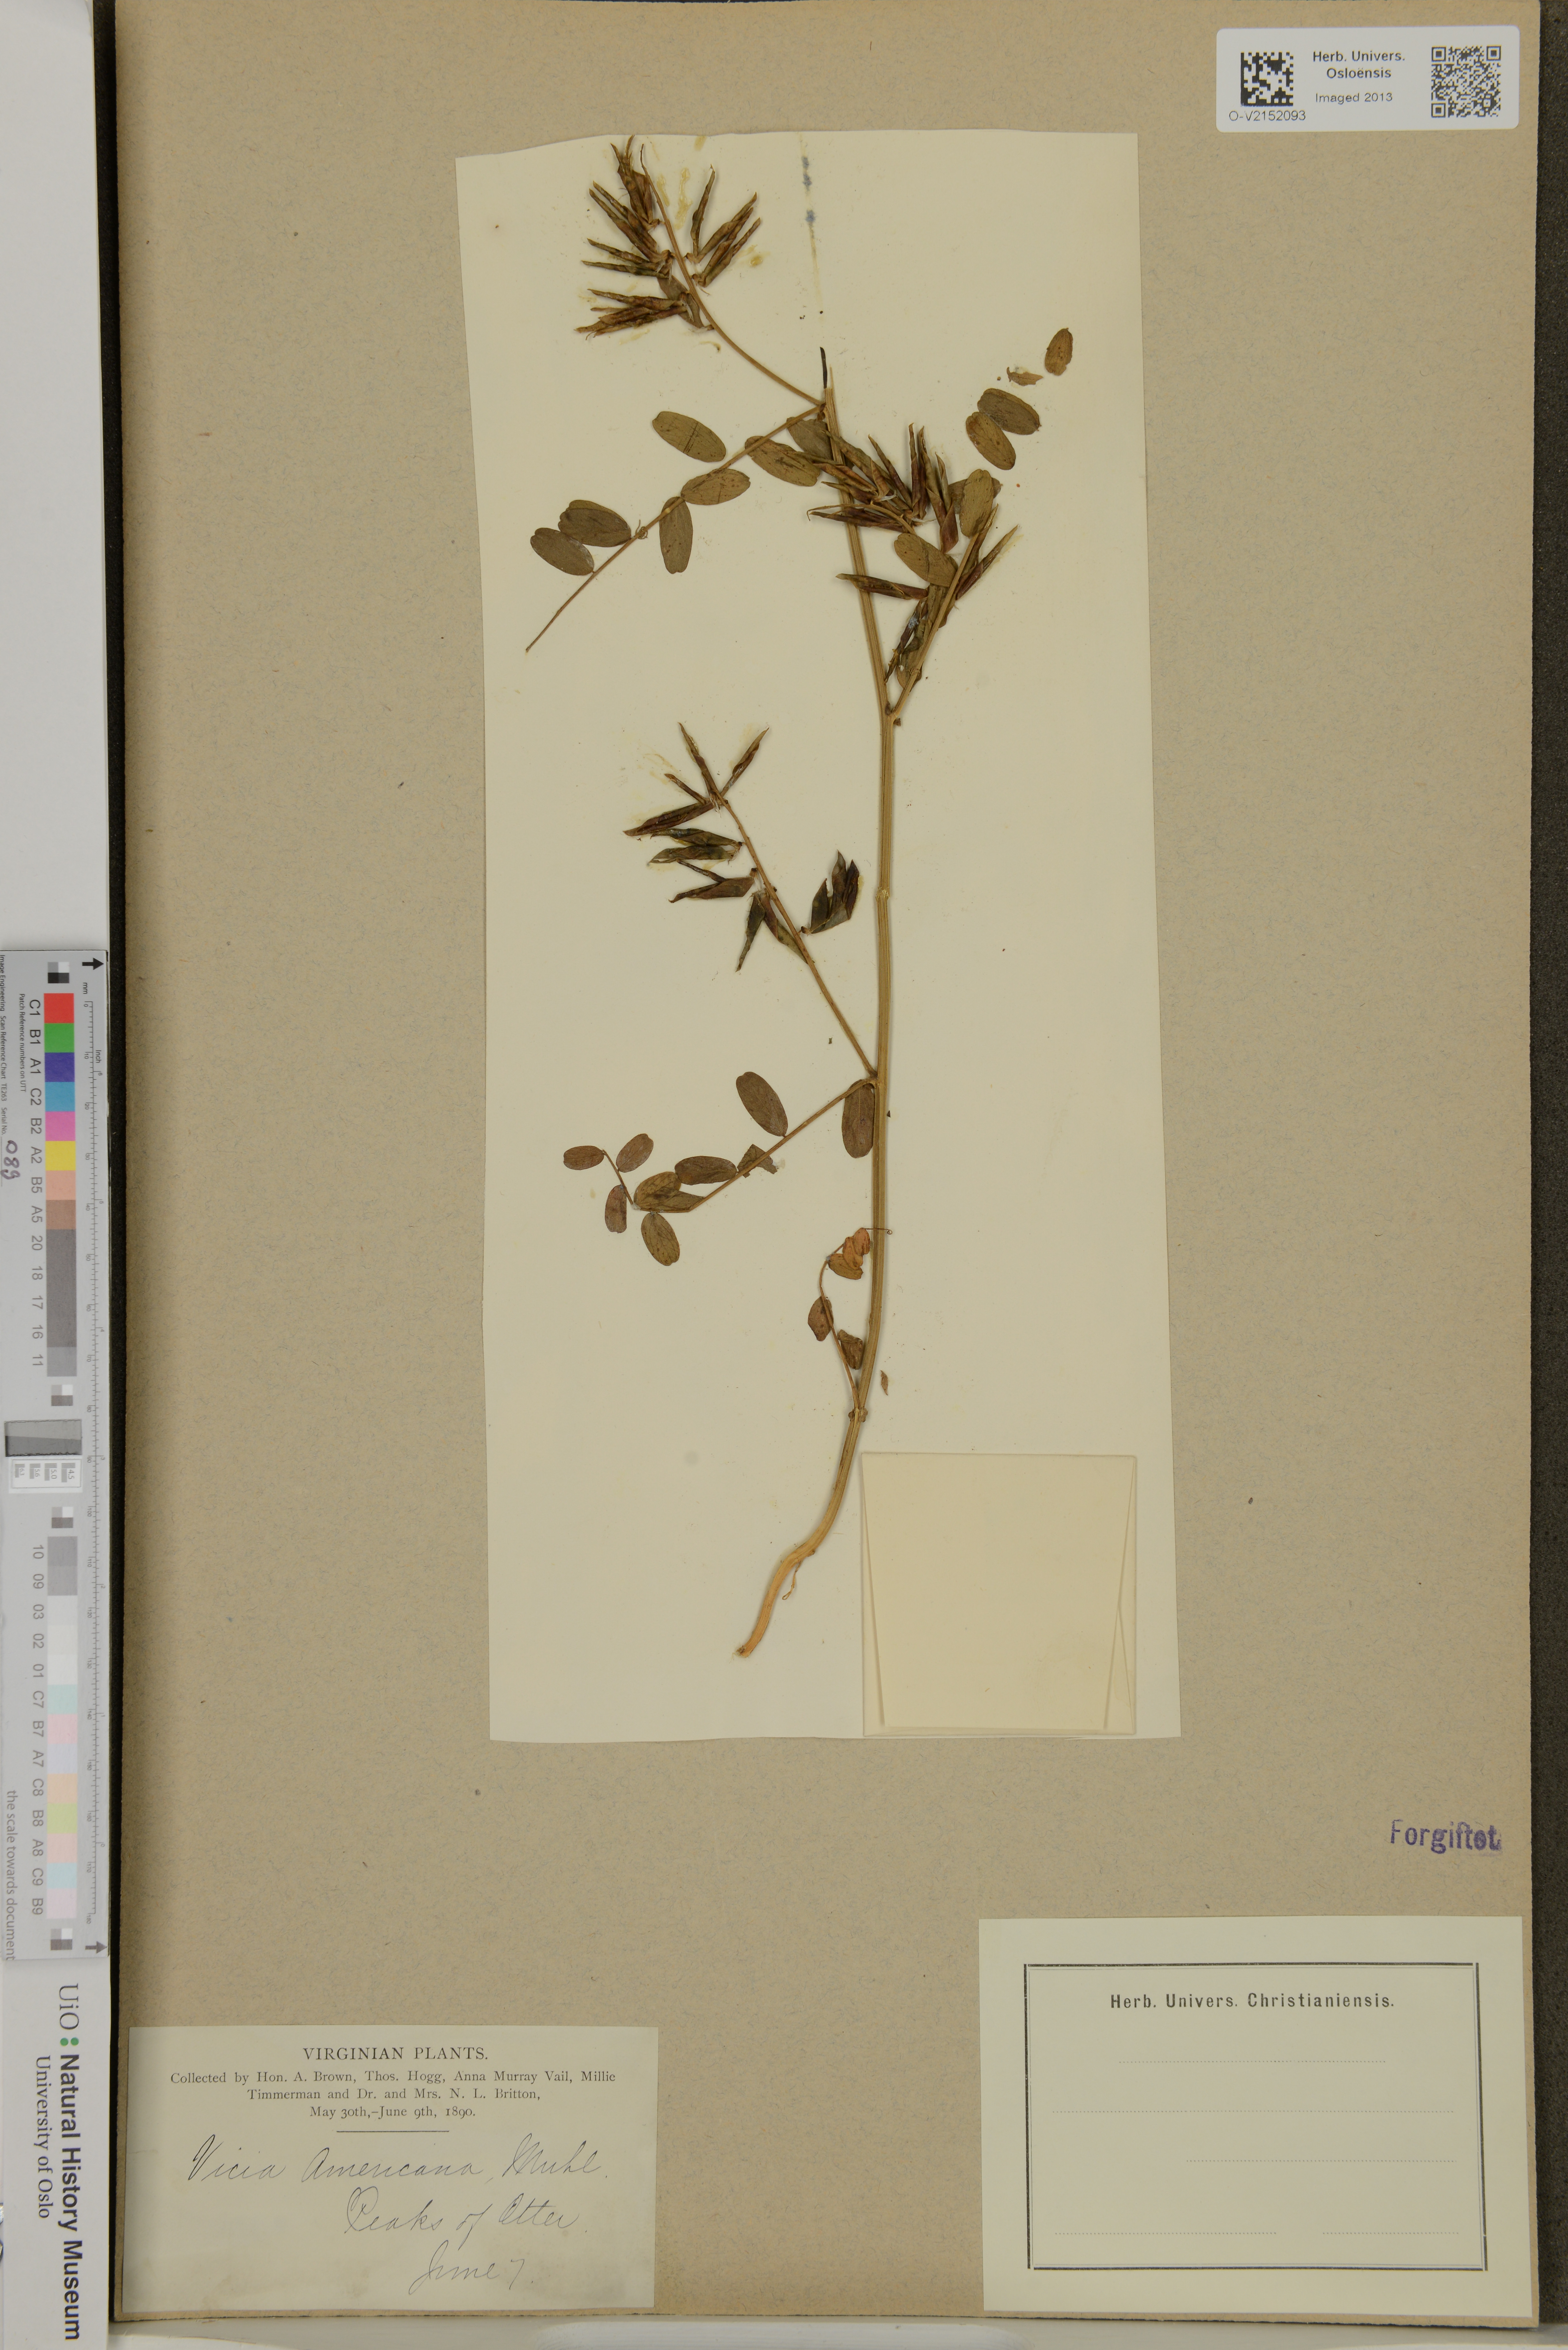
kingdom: Plantae
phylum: Tracheophyta
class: Magnoliopsida
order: Fabales
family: Fabaceae
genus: Vicia
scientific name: Vicia americana
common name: American vetch
